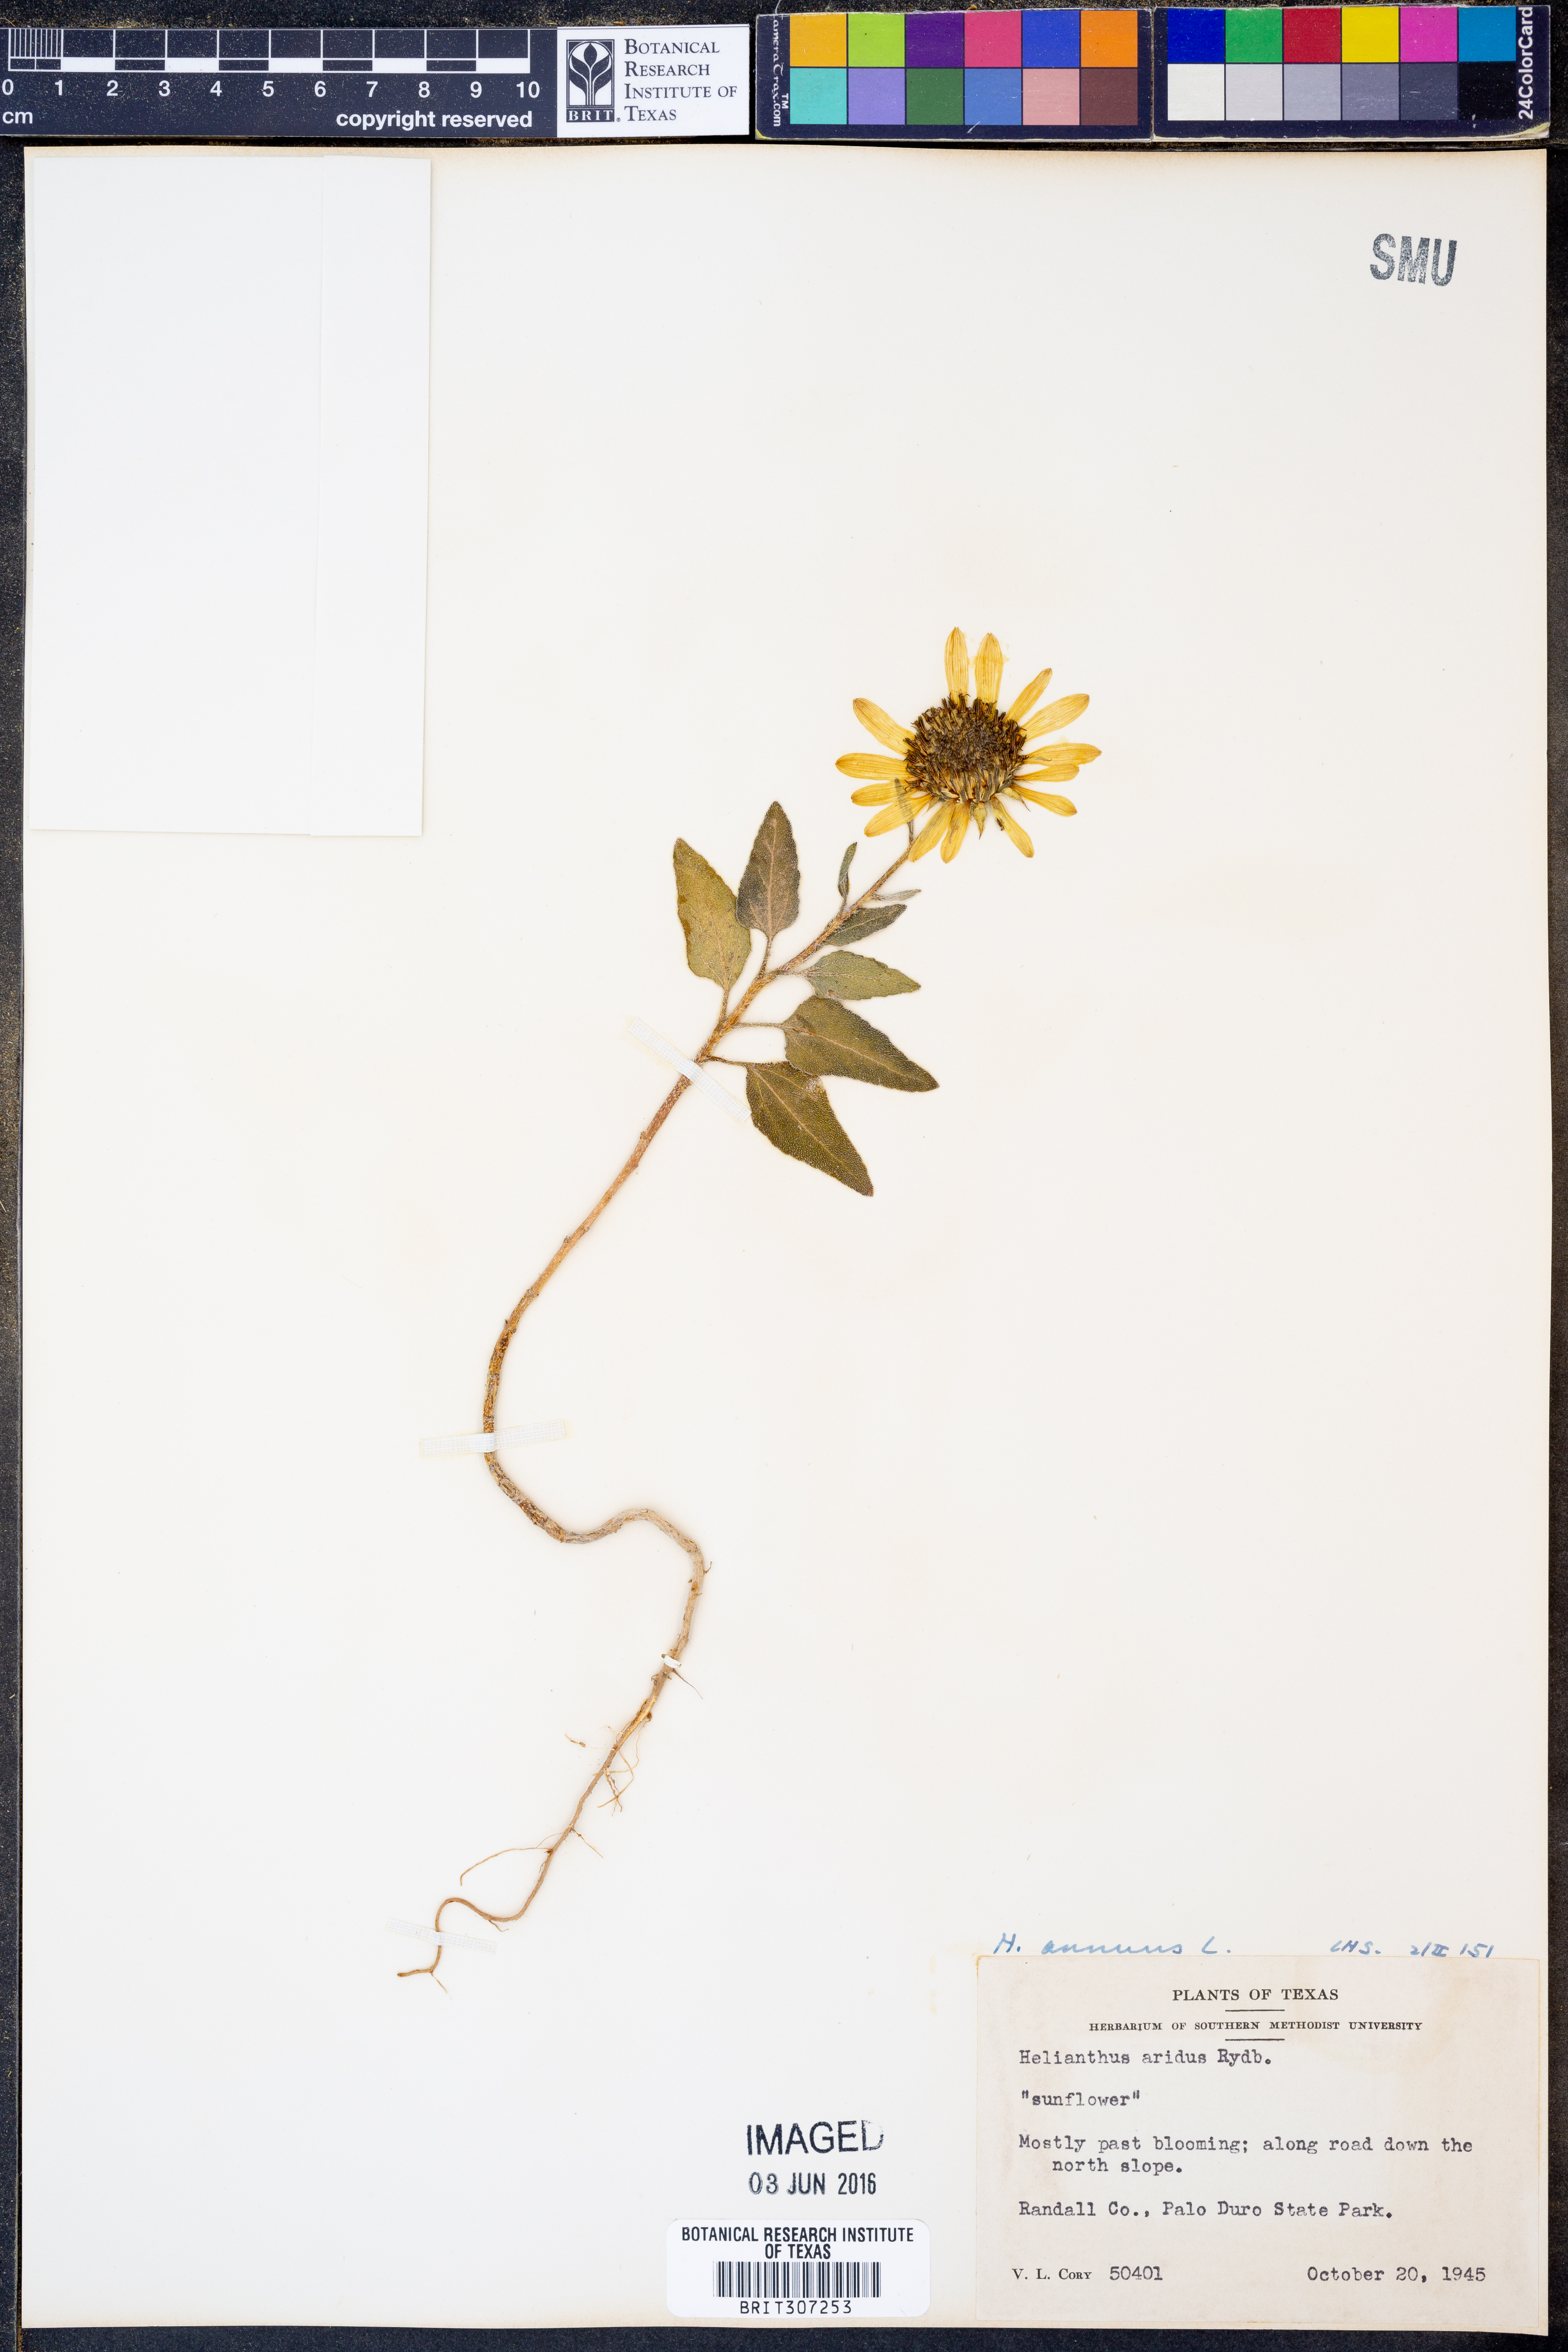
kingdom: Plantae
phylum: Tracheophyta
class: Magnoliopsida
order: Asterales
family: Asteraceae
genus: Helianthus
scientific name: Helianthus annuus
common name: Sunflower
